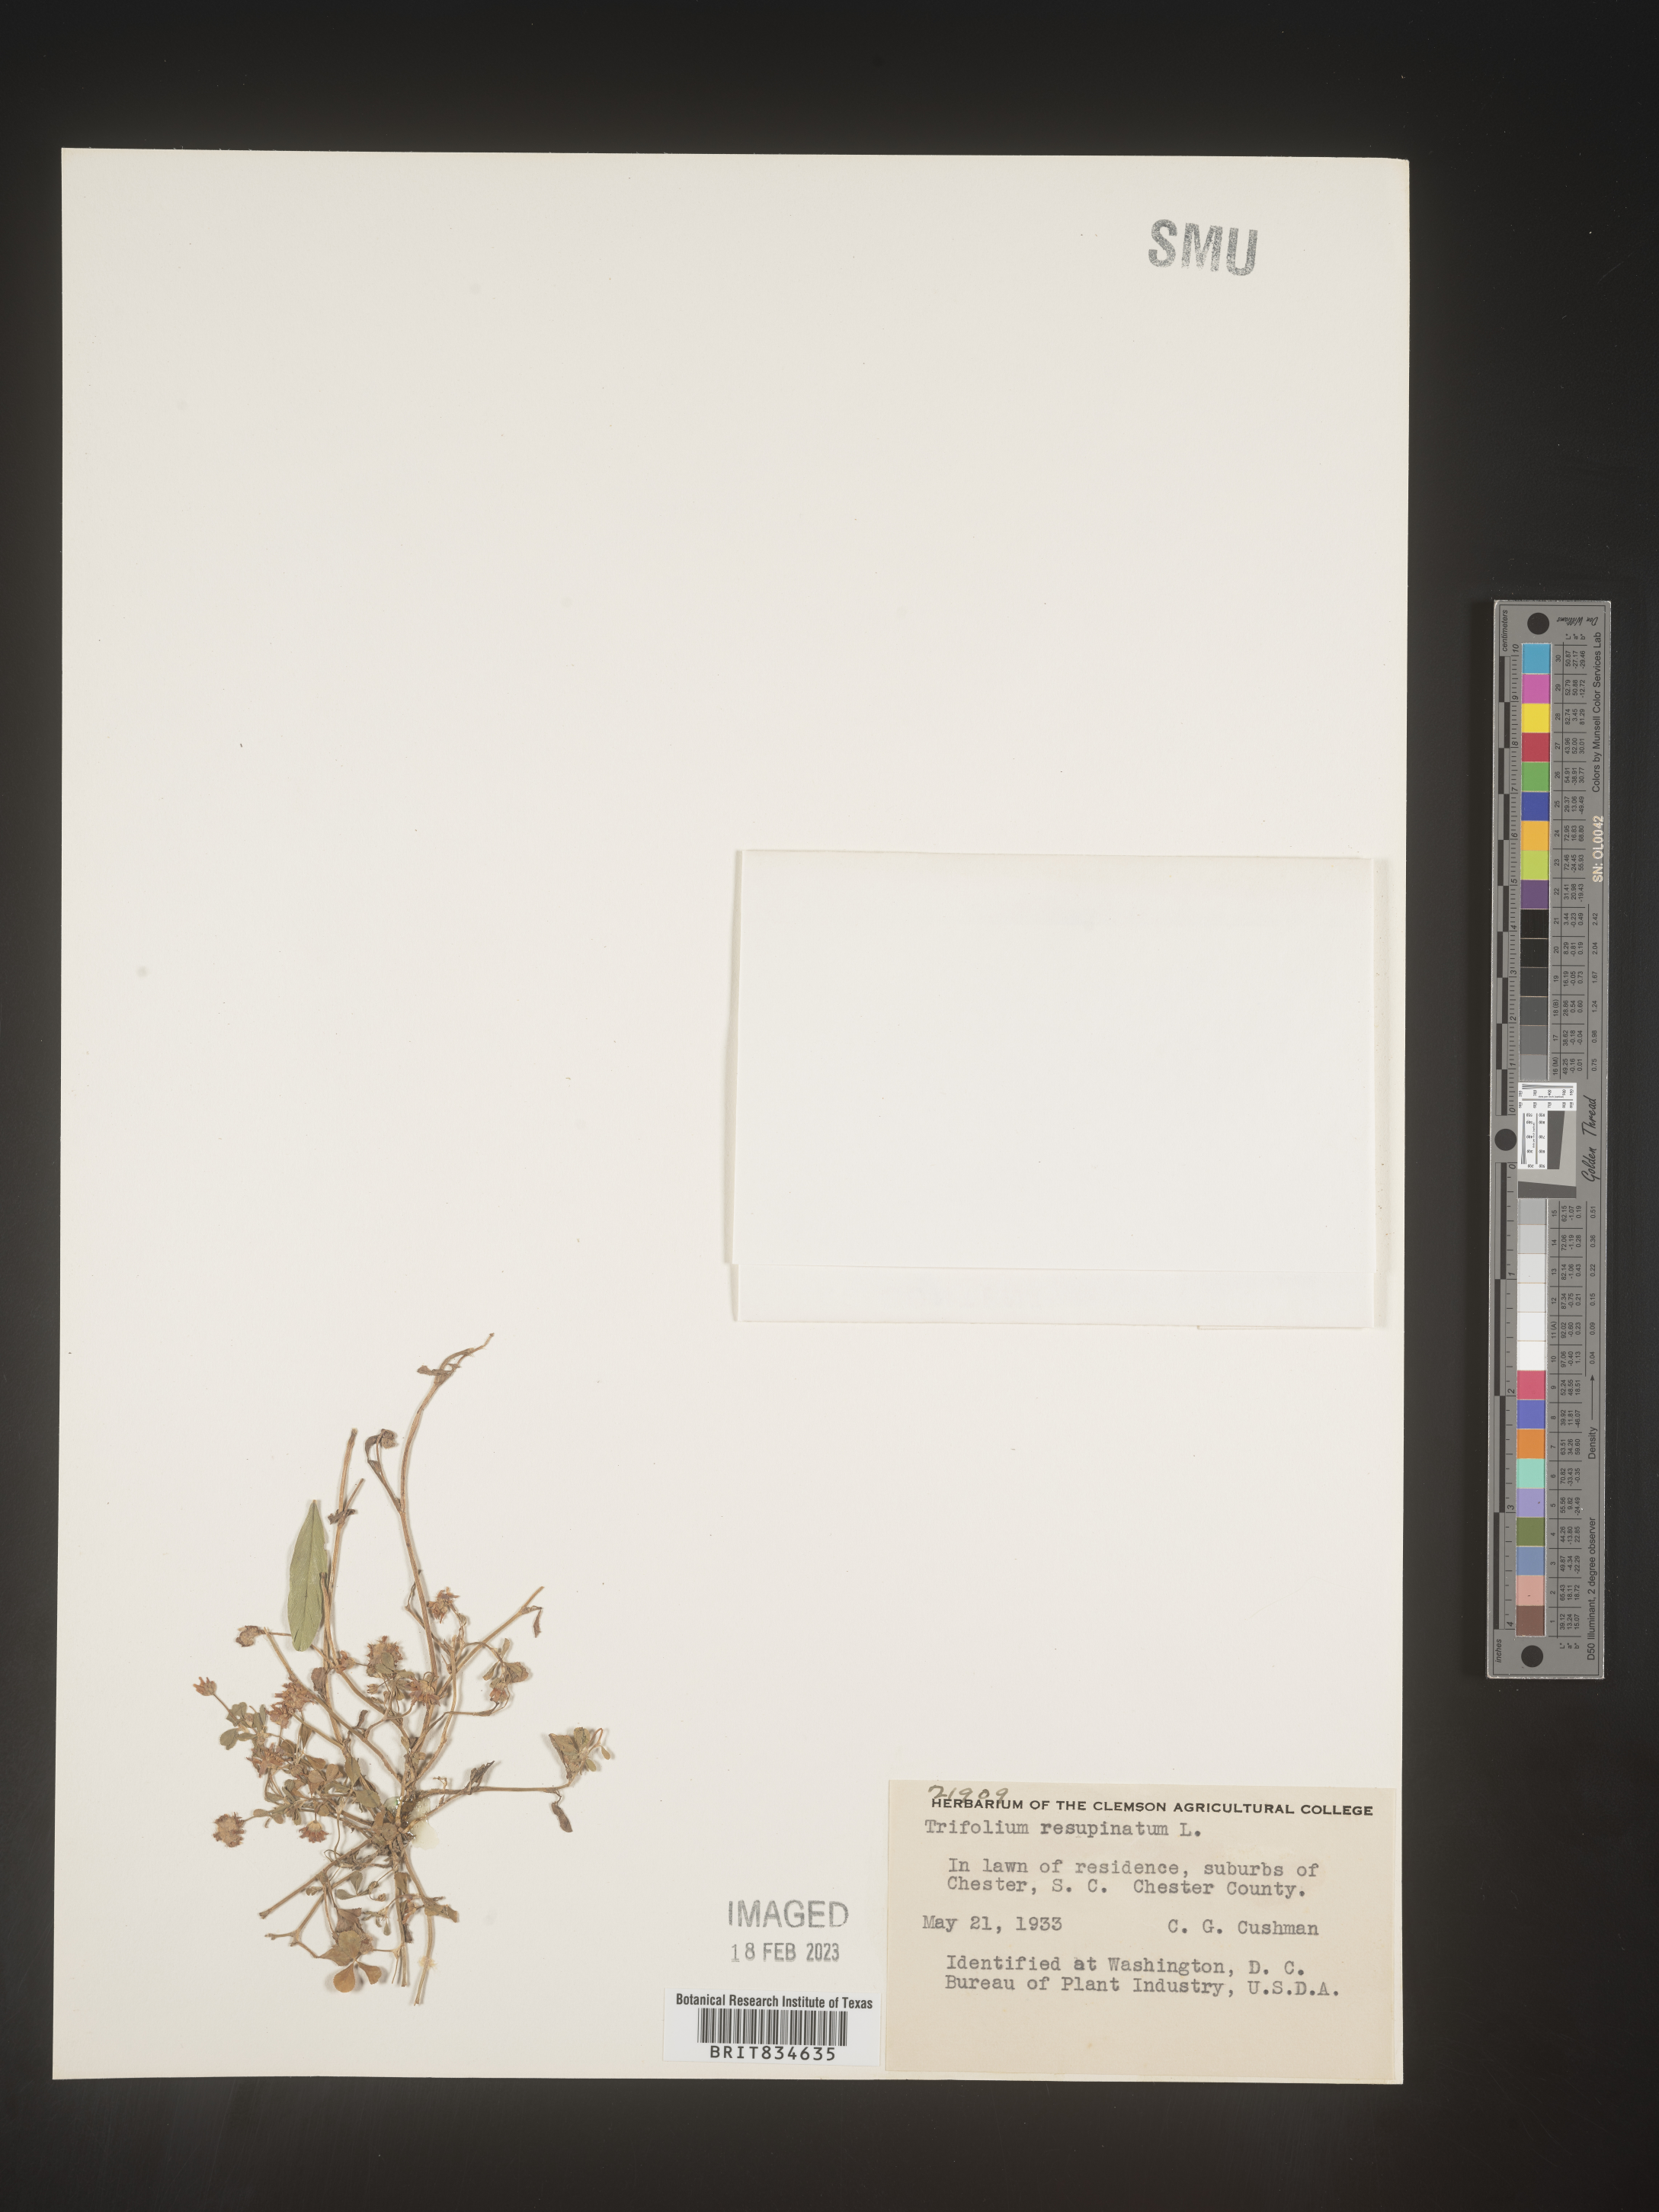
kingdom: Plantae
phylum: Tracheophyta
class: Magnoliopsida
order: Fabales
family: Fabaceae
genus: Trifolium
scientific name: Trifolium resupinatum
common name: Reversed clover
